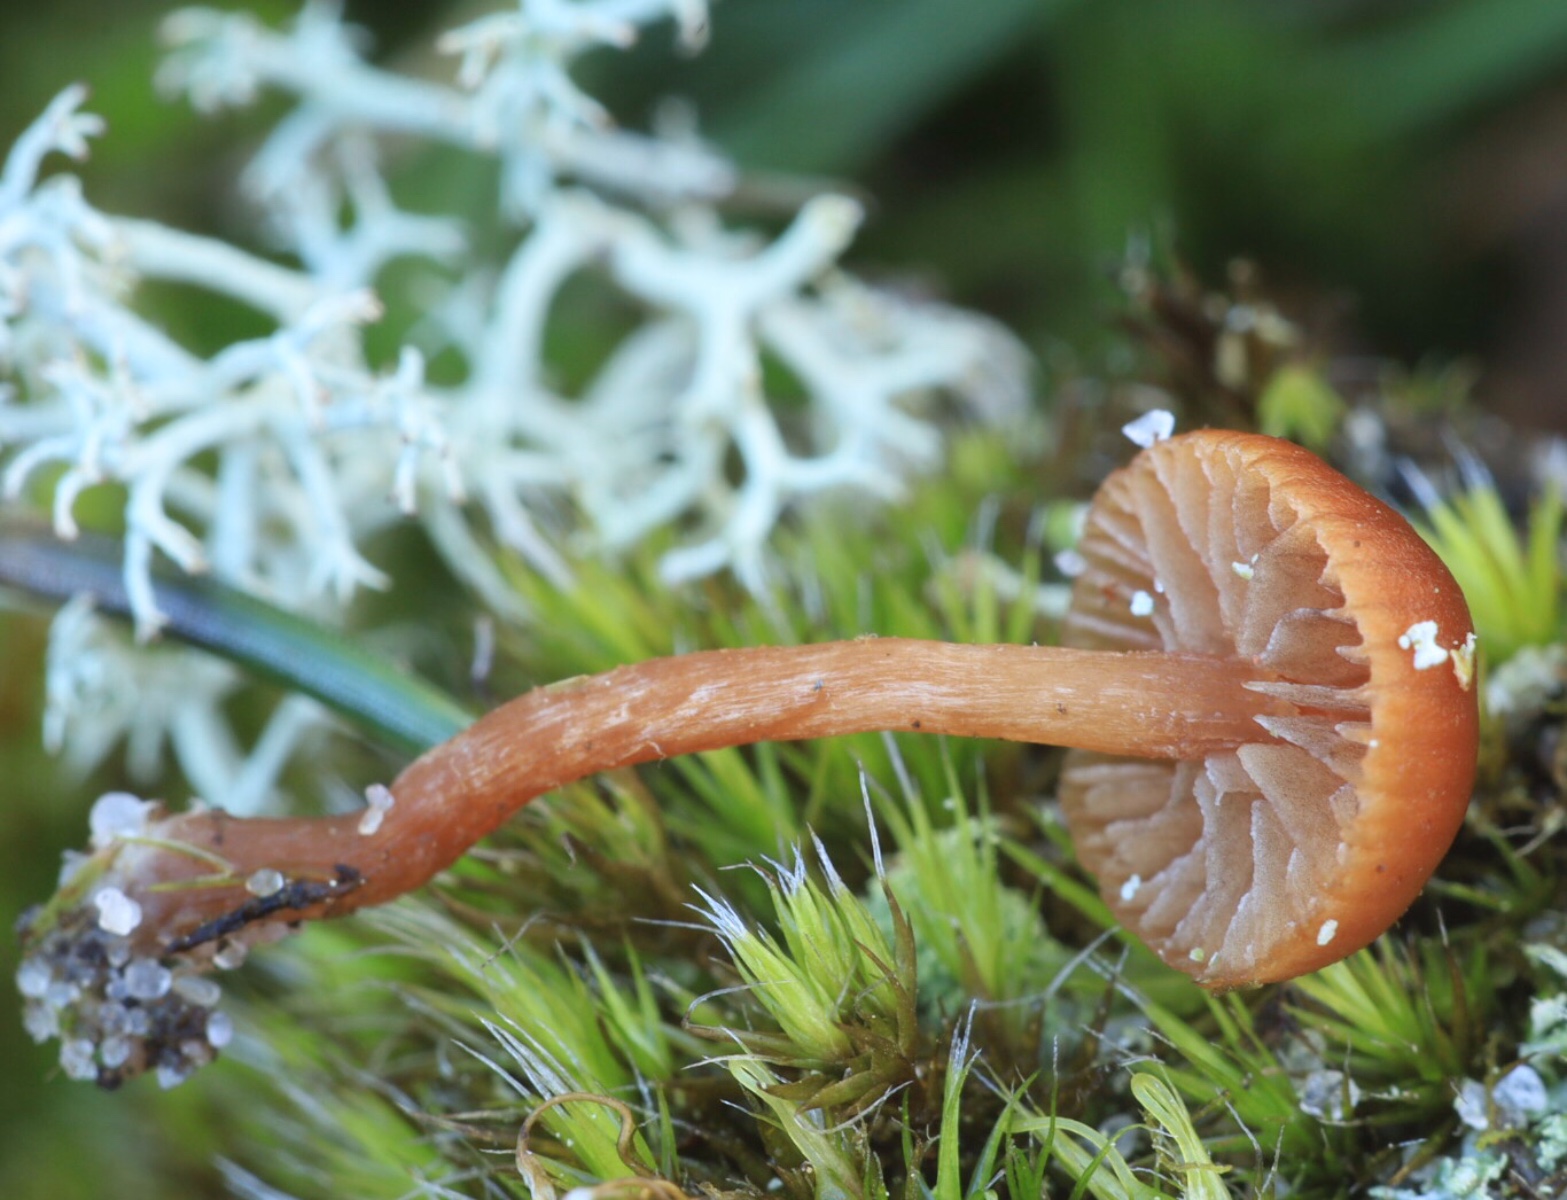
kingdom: Fungi
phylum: Basidiomycota
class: Agaricomycetes
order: Agaricales
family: Strophariaceae
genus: Deconica
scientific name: Deconica montana
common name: rødbrun stråhat
